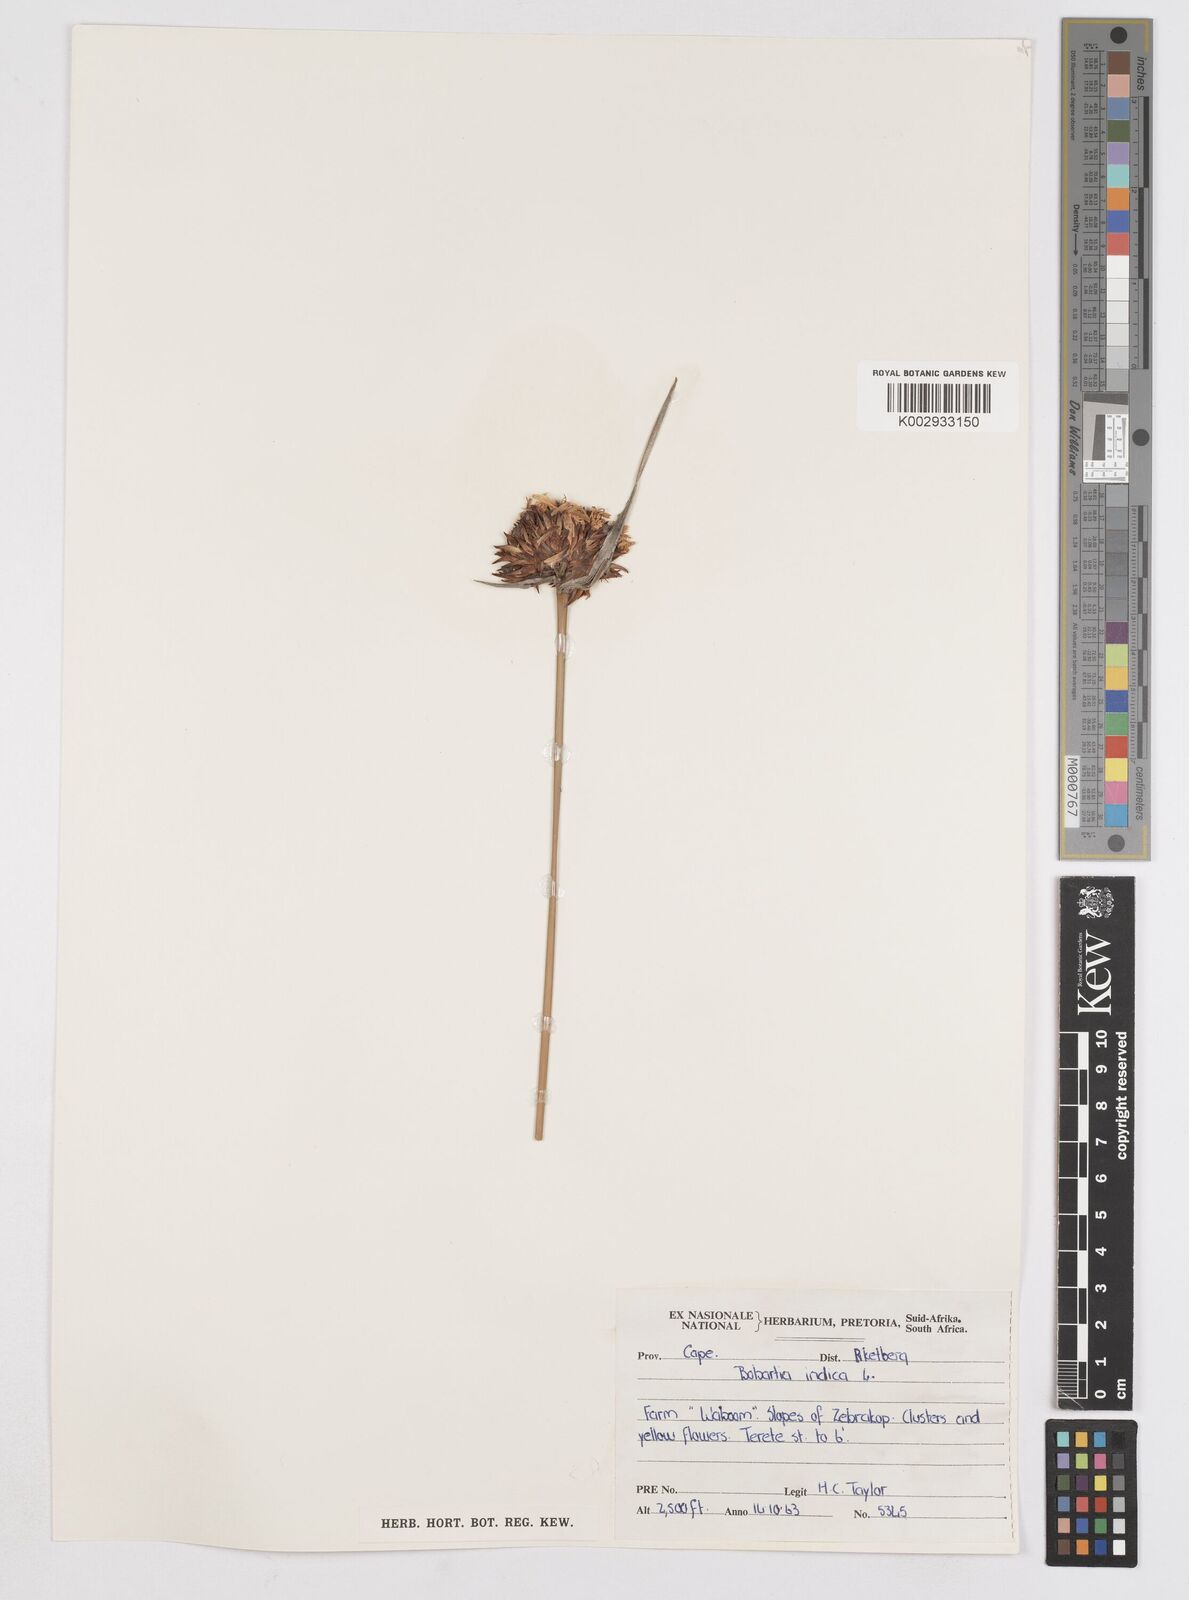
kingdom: Plantae
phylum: Tracheophyta
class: Liliopsida
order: Asparagales
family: Iridaceae
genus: Bobartia
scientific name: Bobartia indica
